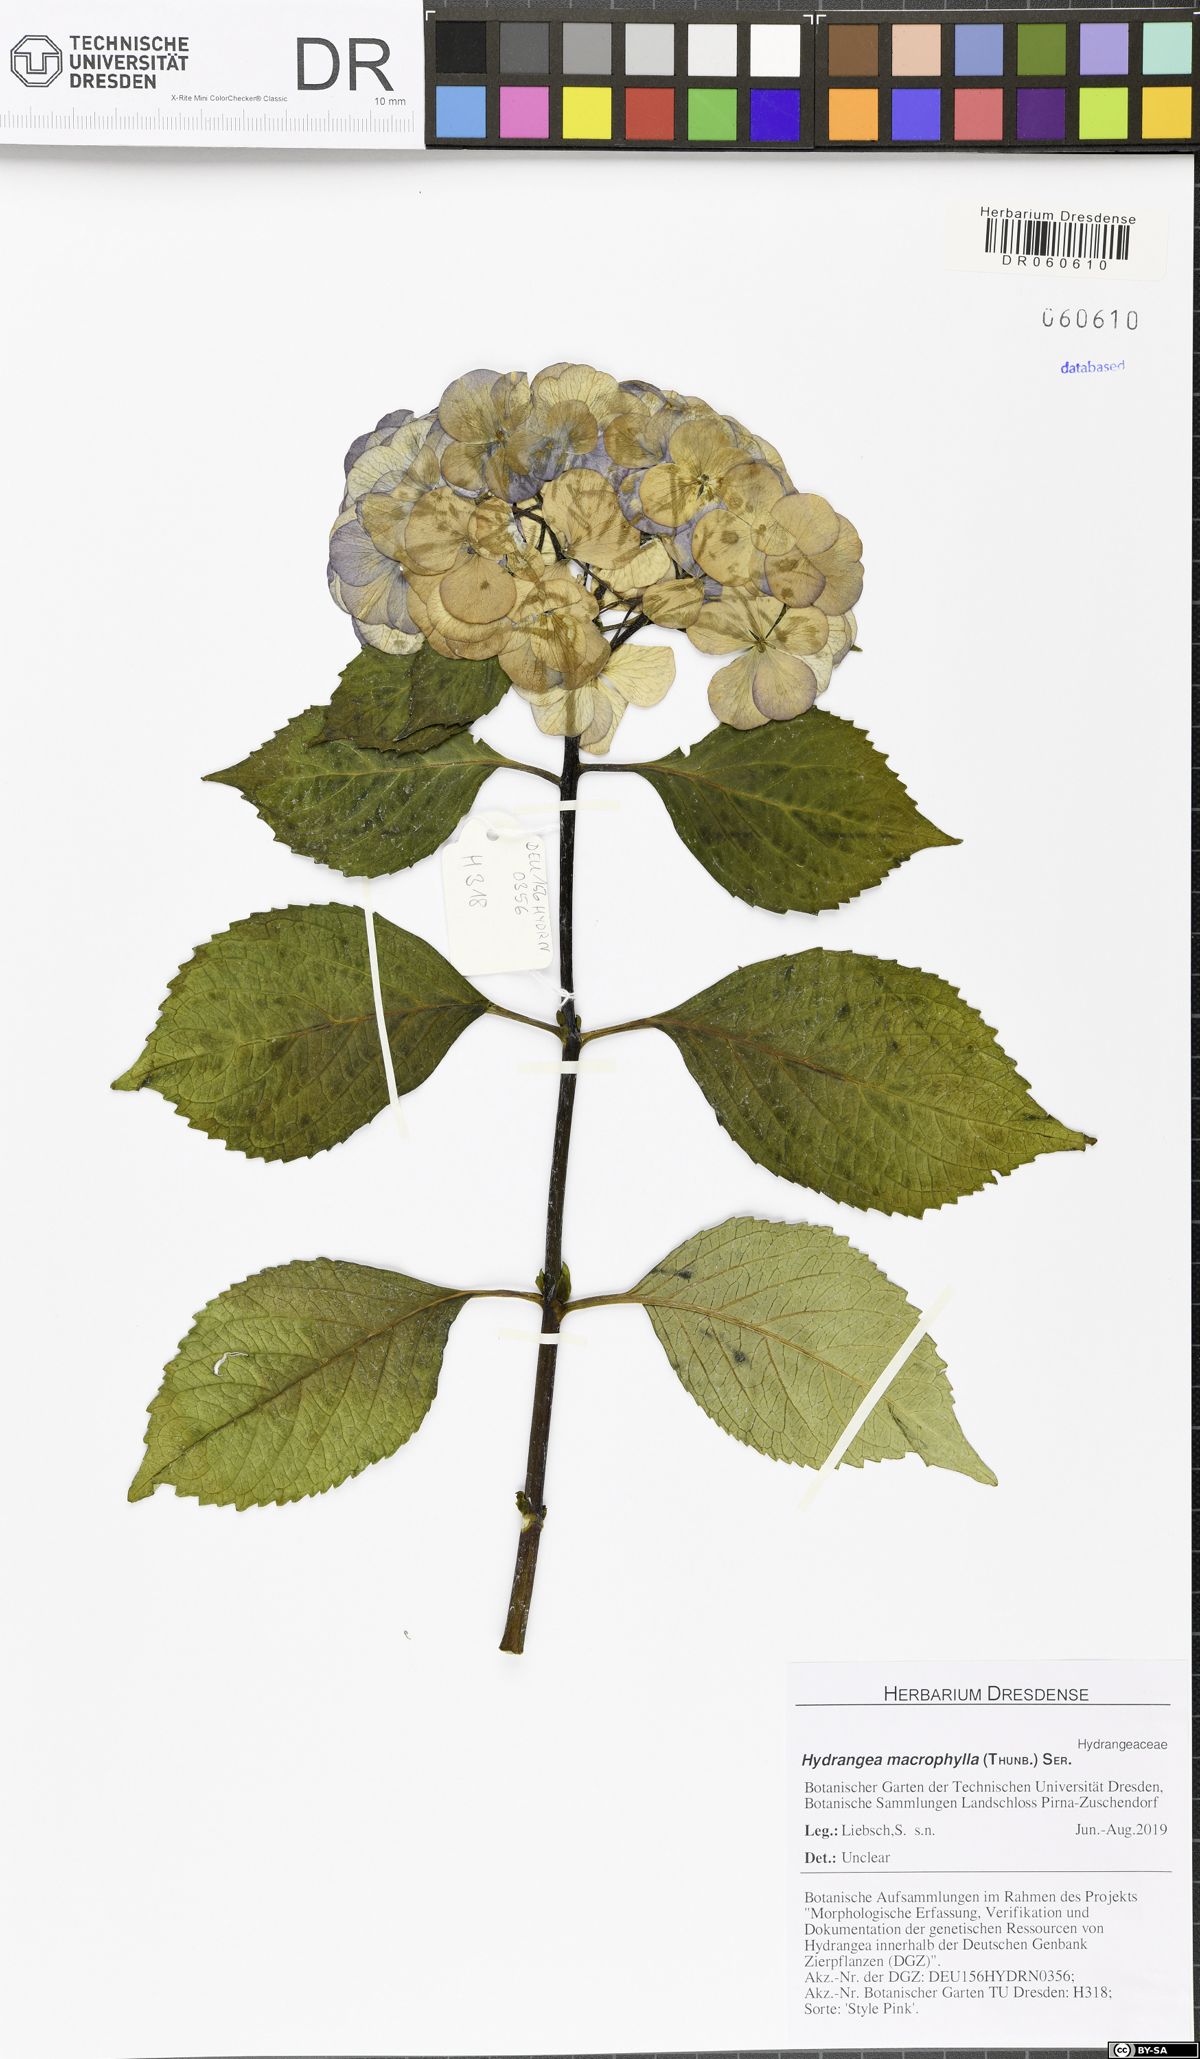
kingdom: Plantae
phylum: Tracheophyta
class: Magnoliopsida
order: Cornales
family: Hydrangeaceae
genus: Hydrangea
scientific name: Hydrangea macrophylla
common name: Hydrangea
